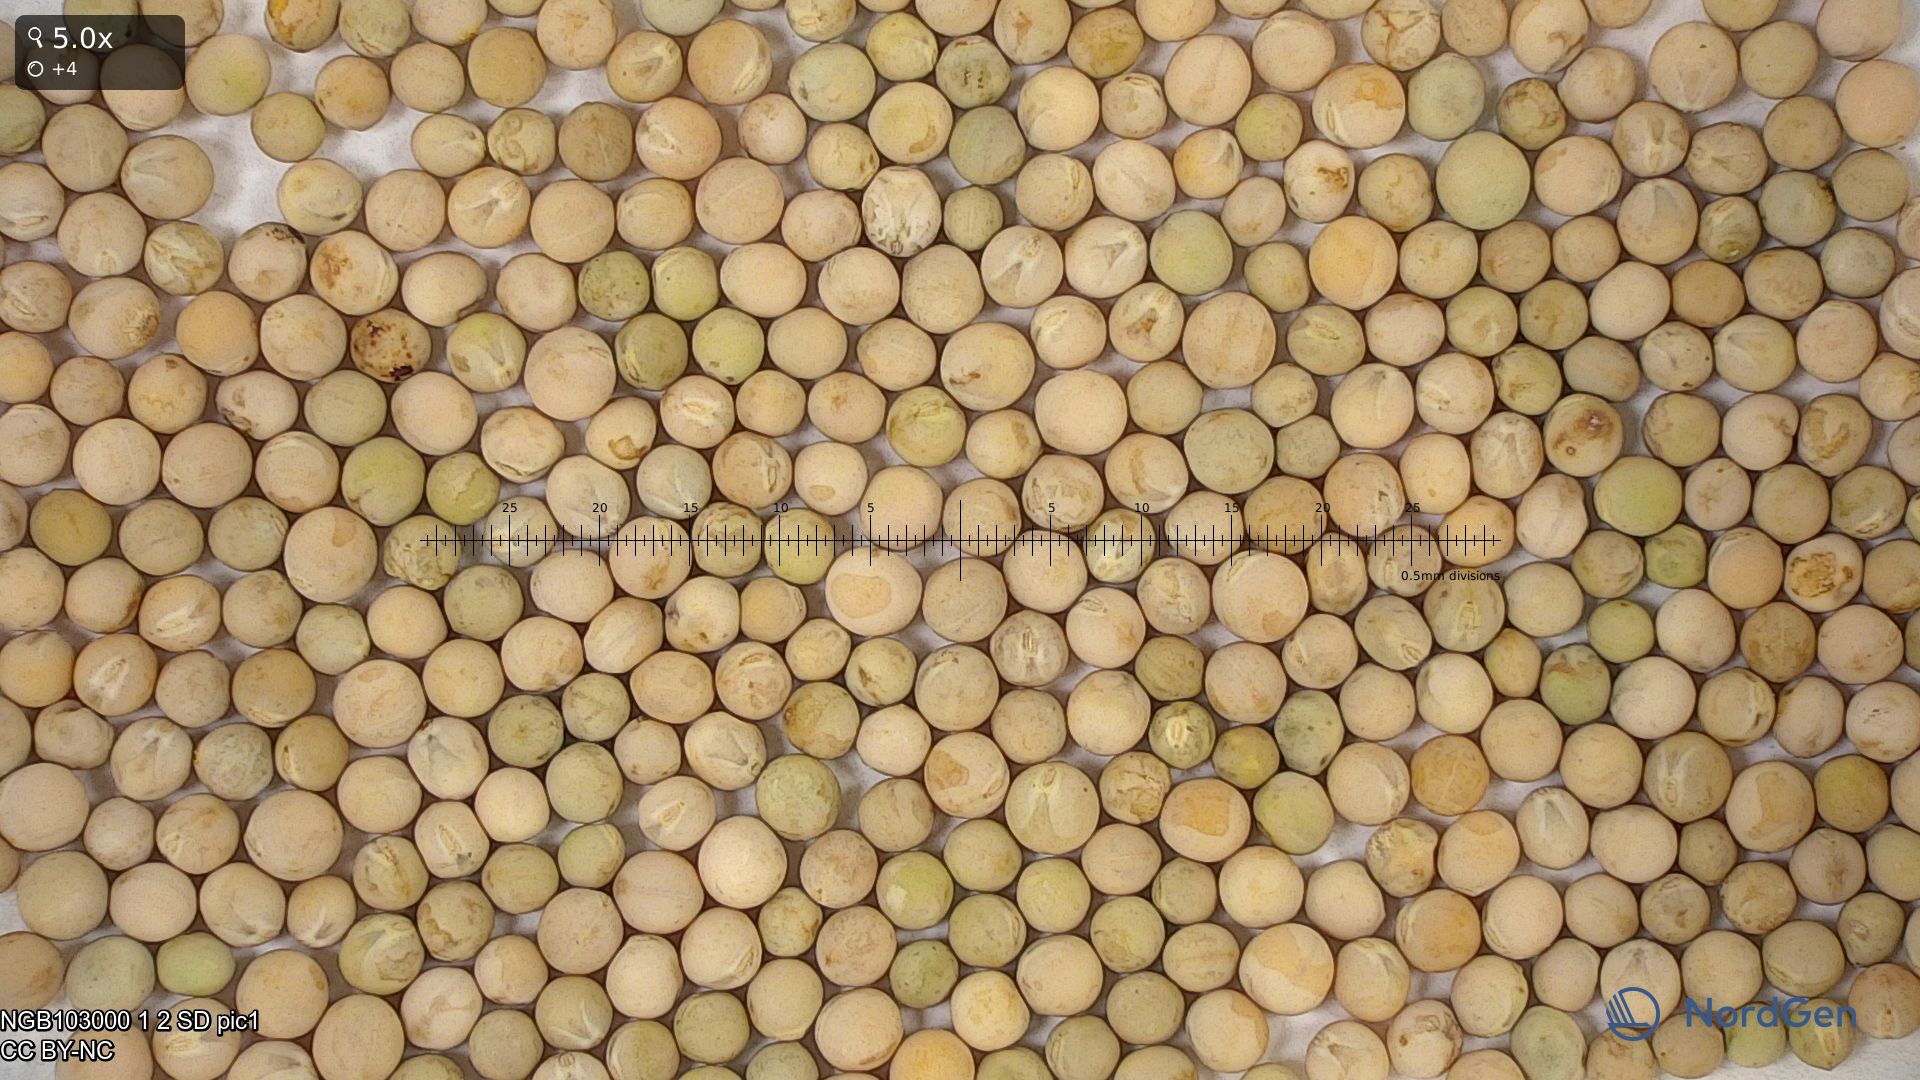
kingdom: Plantae
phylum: Tracheophyta
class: Magnoliopsida
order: Fabales
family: Fabaceae
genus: Lathyrus
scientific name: Lathyrus oleraceus
